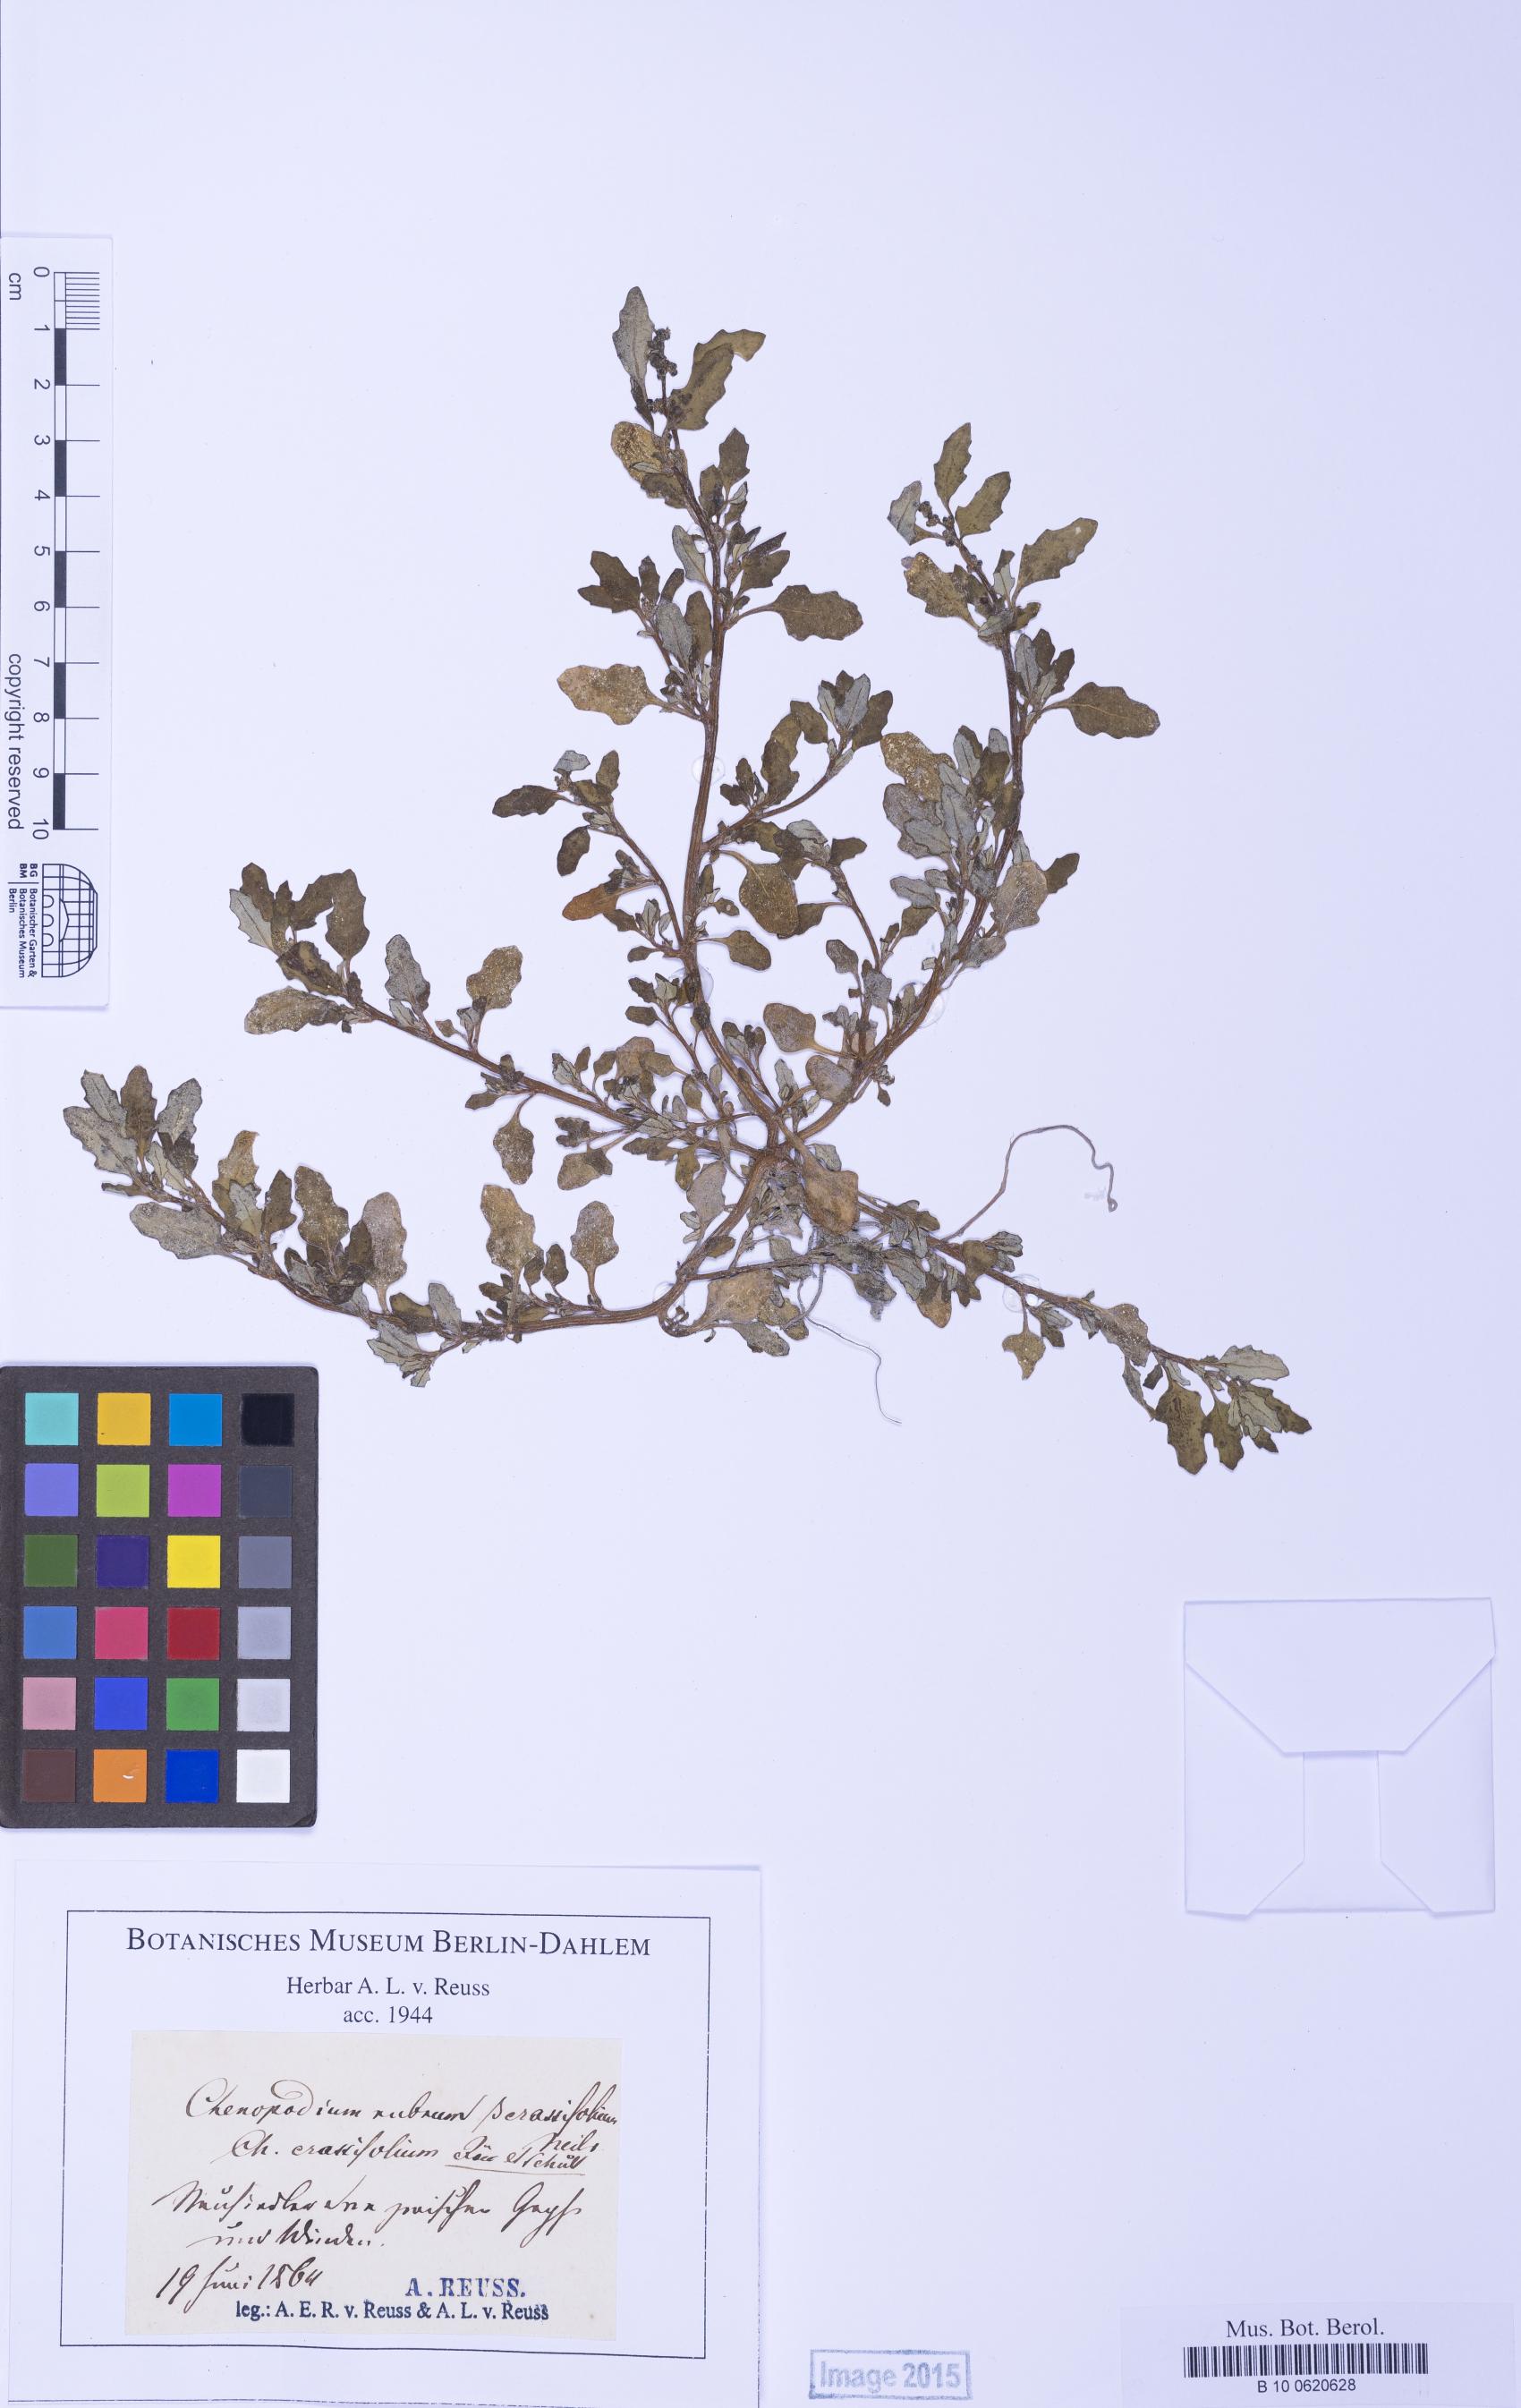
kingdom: Plantae
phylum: Tracheophyta
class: Magnoliopsida
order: Caryophyllales
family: Amaranthaceae
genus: Oxybasis
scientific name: Oxybasis glauca
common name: Glaucous goosefoot
